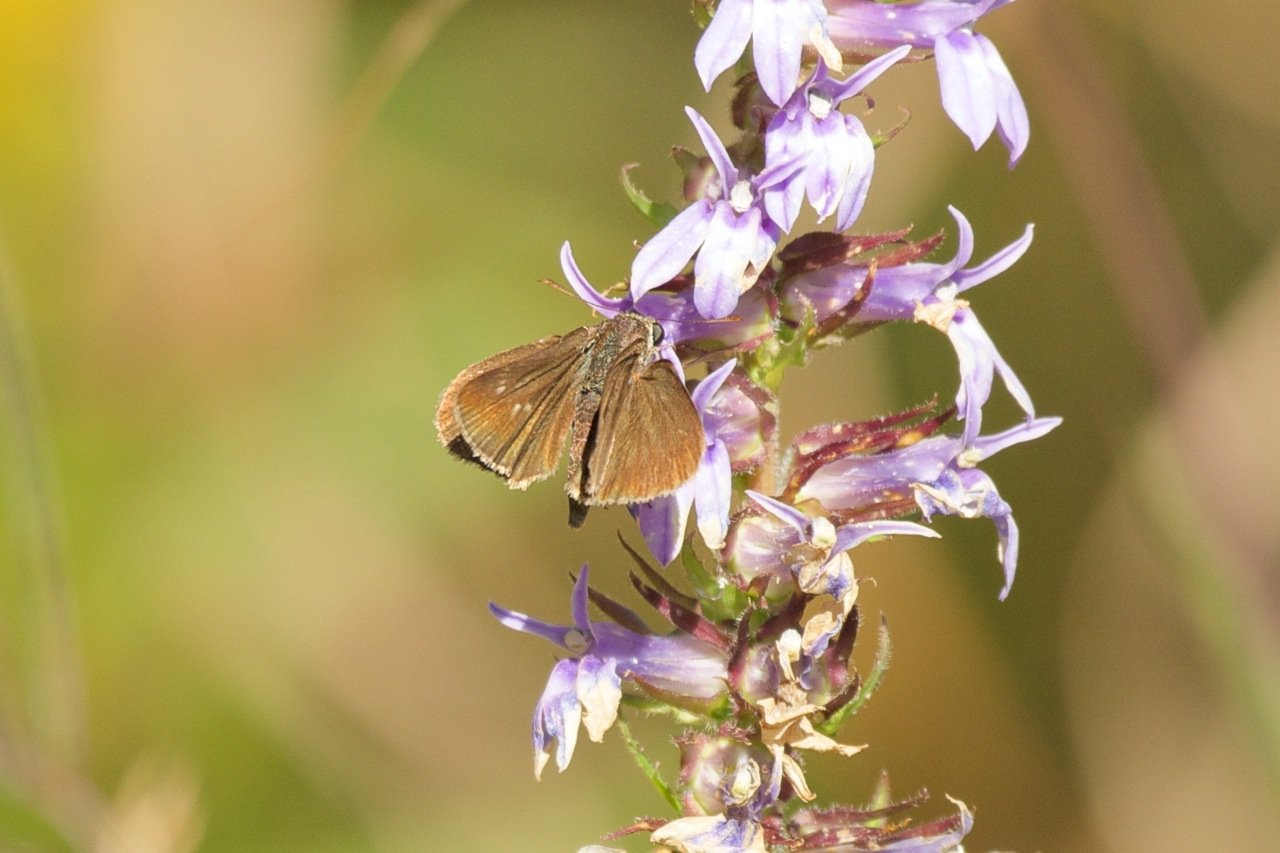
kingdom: Animalia
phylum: Arthropoda
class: Insecta
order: Lepidoptera
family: Hesperiidae
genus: Euphyes
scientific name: Euphyes vestris
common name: Dun Skipper
